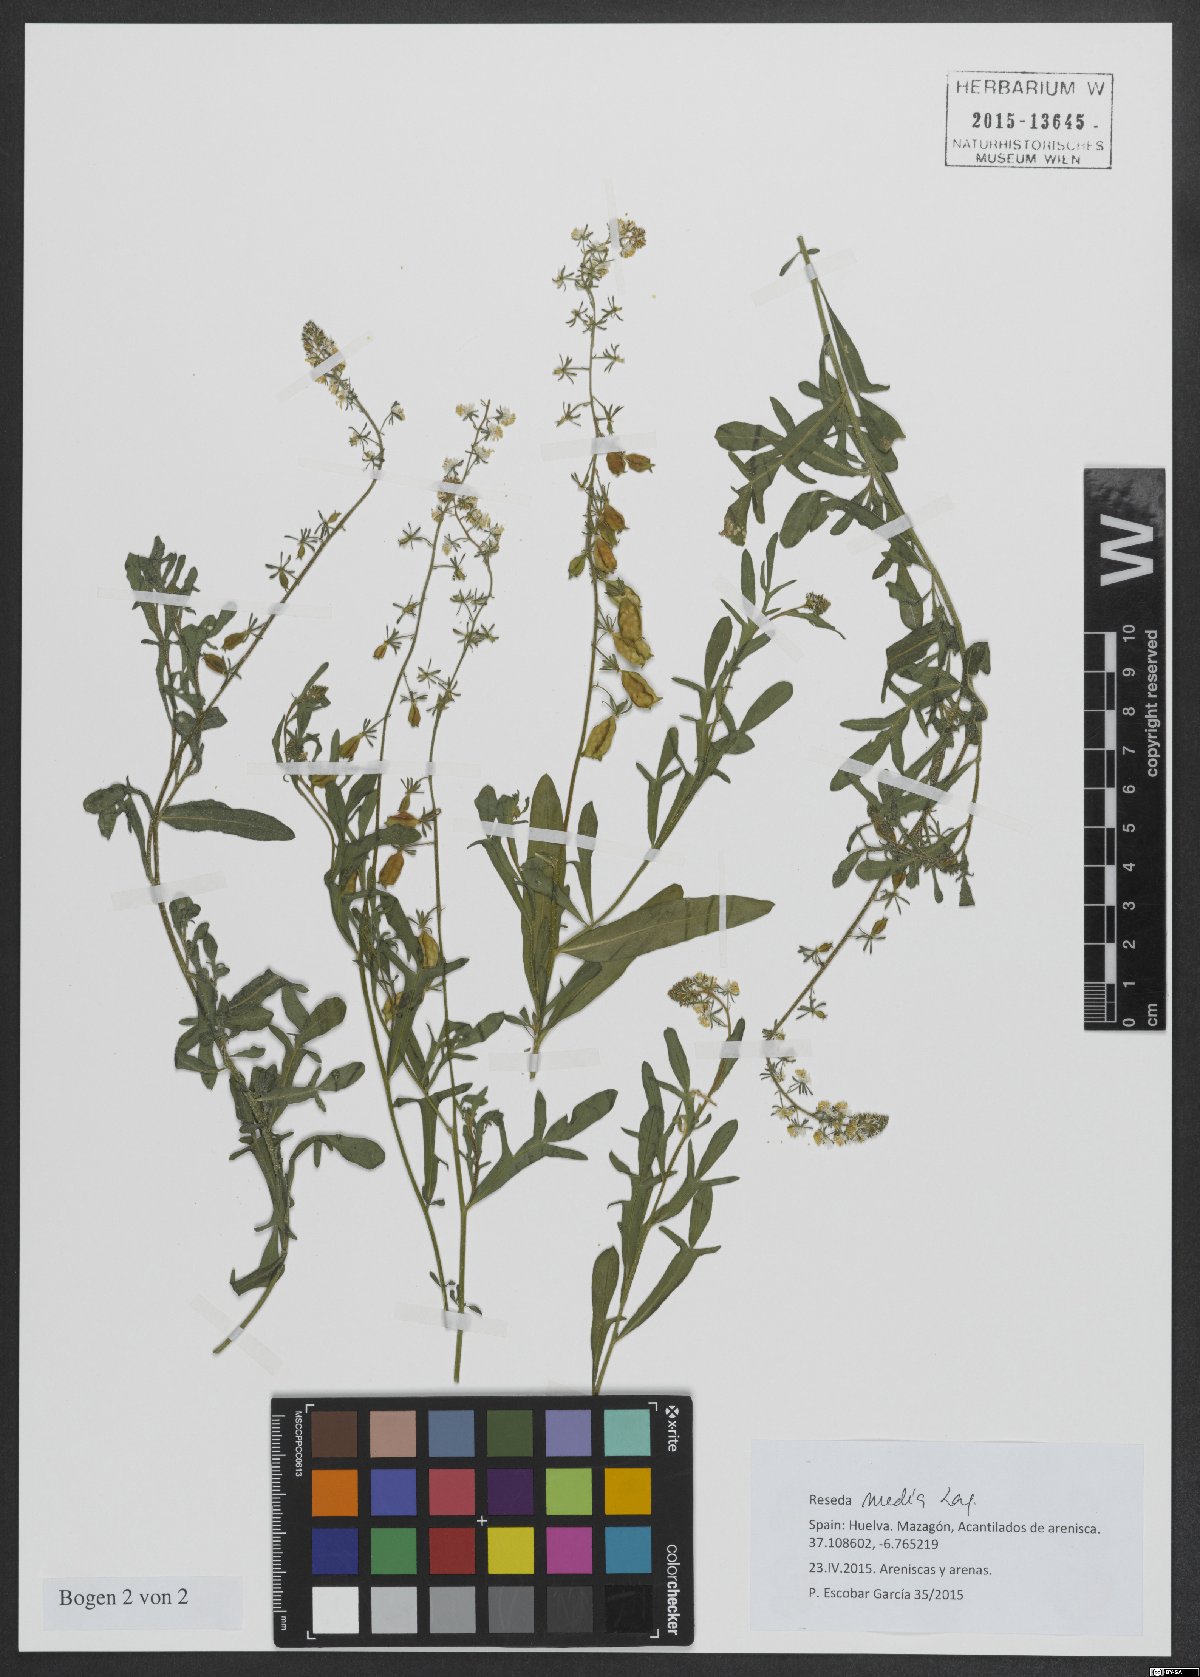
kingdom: Plantae
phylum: Tracheophyta
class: Magnoliopsida
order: Brassicales
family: Resedaceae
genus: Reseda
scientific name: Reseda media
